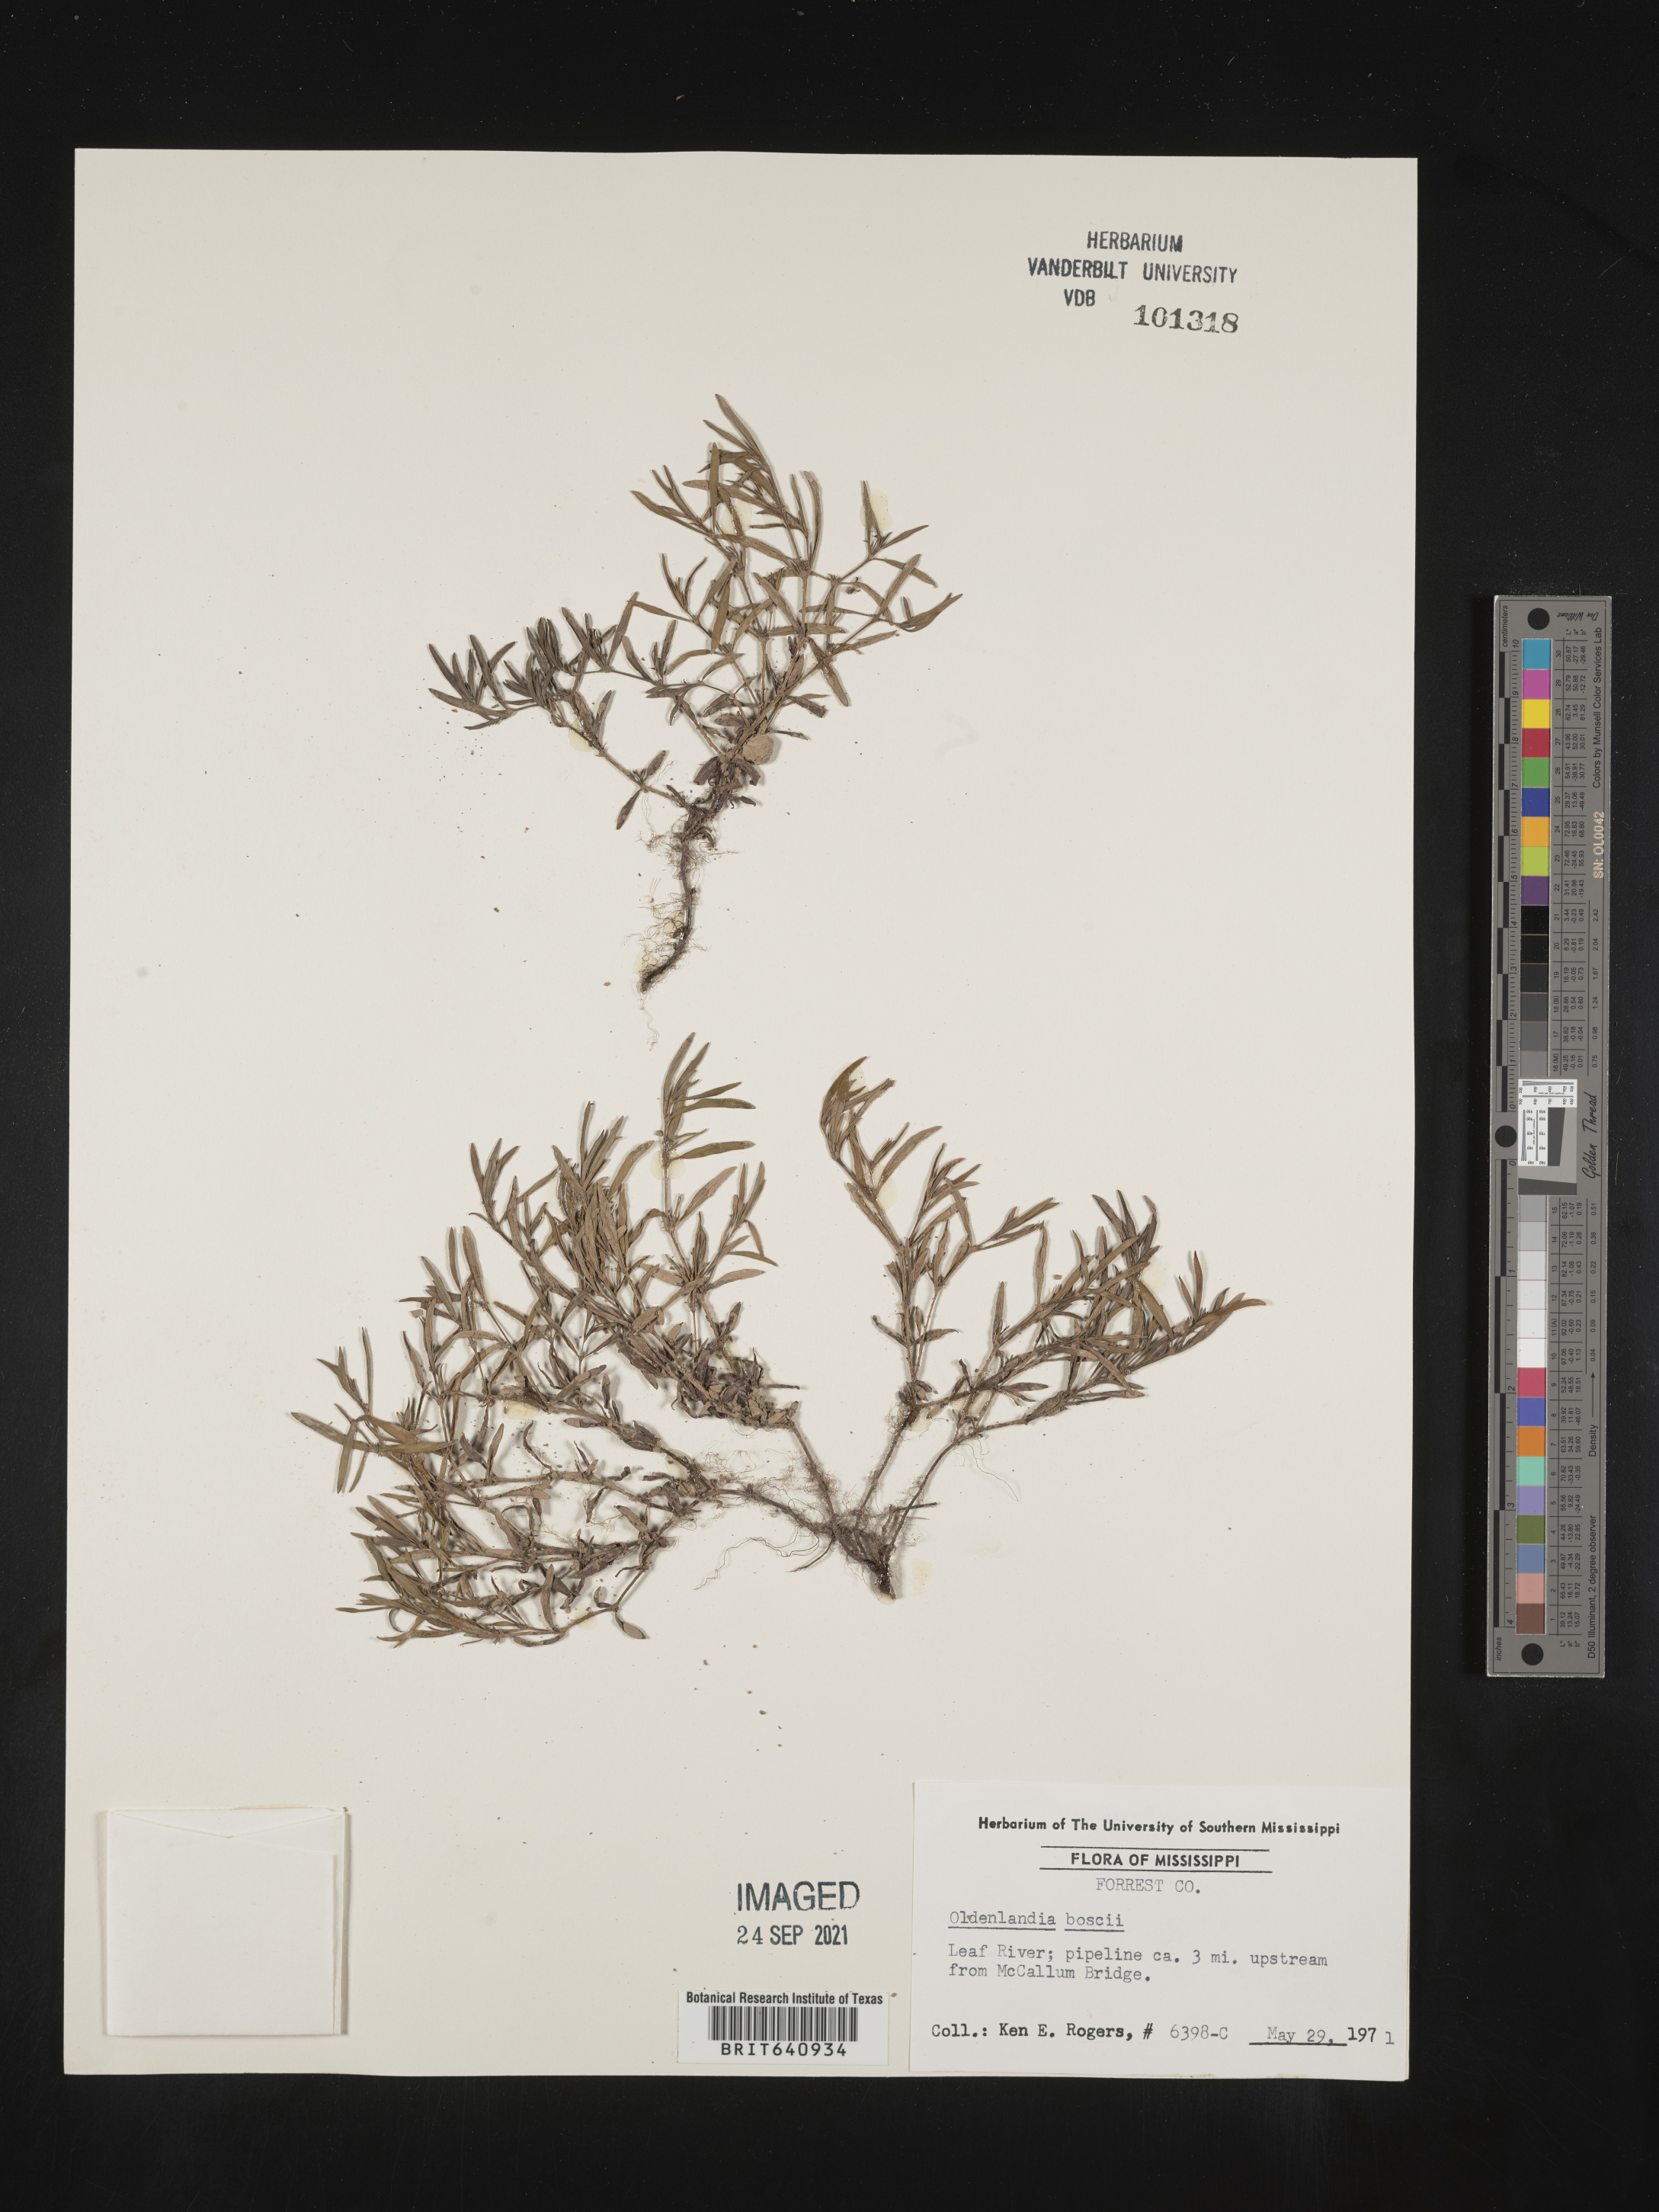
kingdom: Plantae
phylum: Tracheophyta
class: Magnoliopsida
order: Gentianales
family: Rubiaceae
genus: Oldenlandia
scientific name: Oldenlandia boscii
